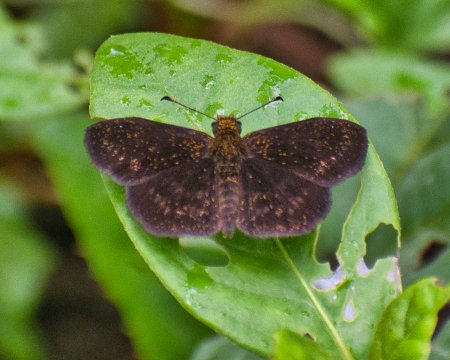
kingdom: Animalia
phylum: Arthropoda
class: Insecta
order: Lepidoptera
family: Hesperiidae
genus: Bolla
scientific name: Bolla cupreiceps
